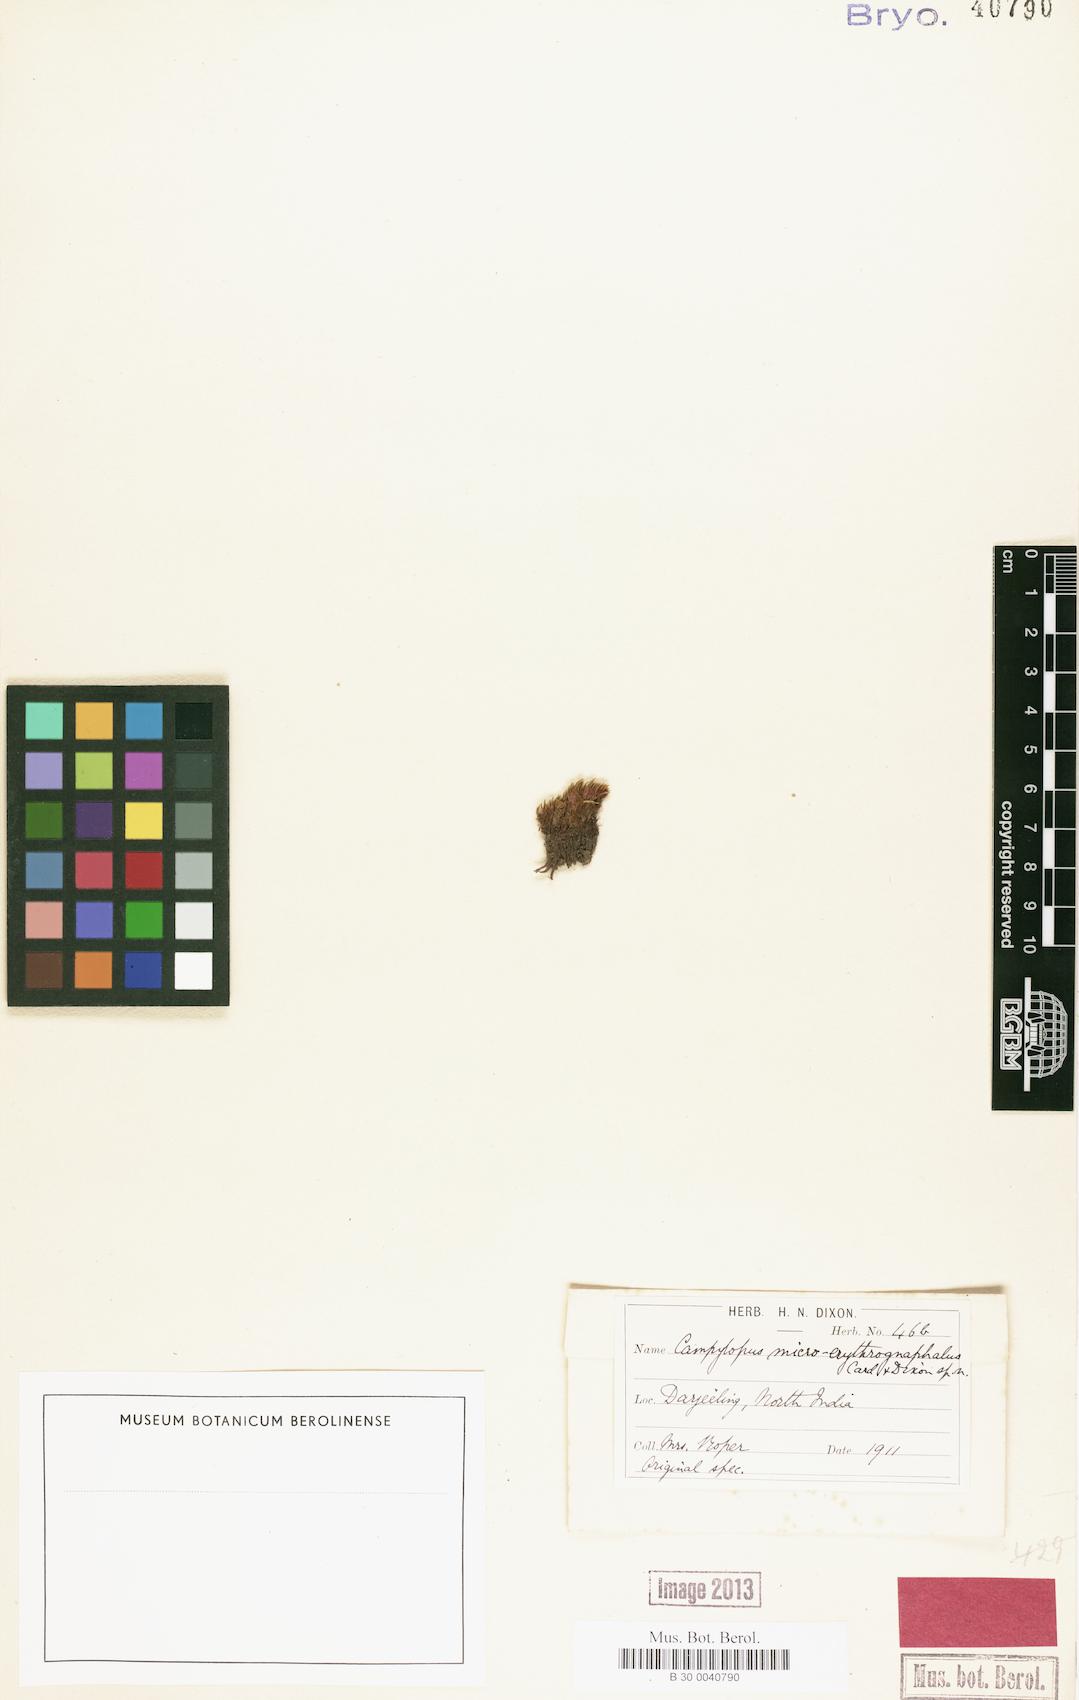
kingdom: Plantae
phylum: Bryophyta
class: Bryopsida
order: Dicranales
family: Leucobryaceae
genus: Campylopus
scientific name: Campylopus ericoides
